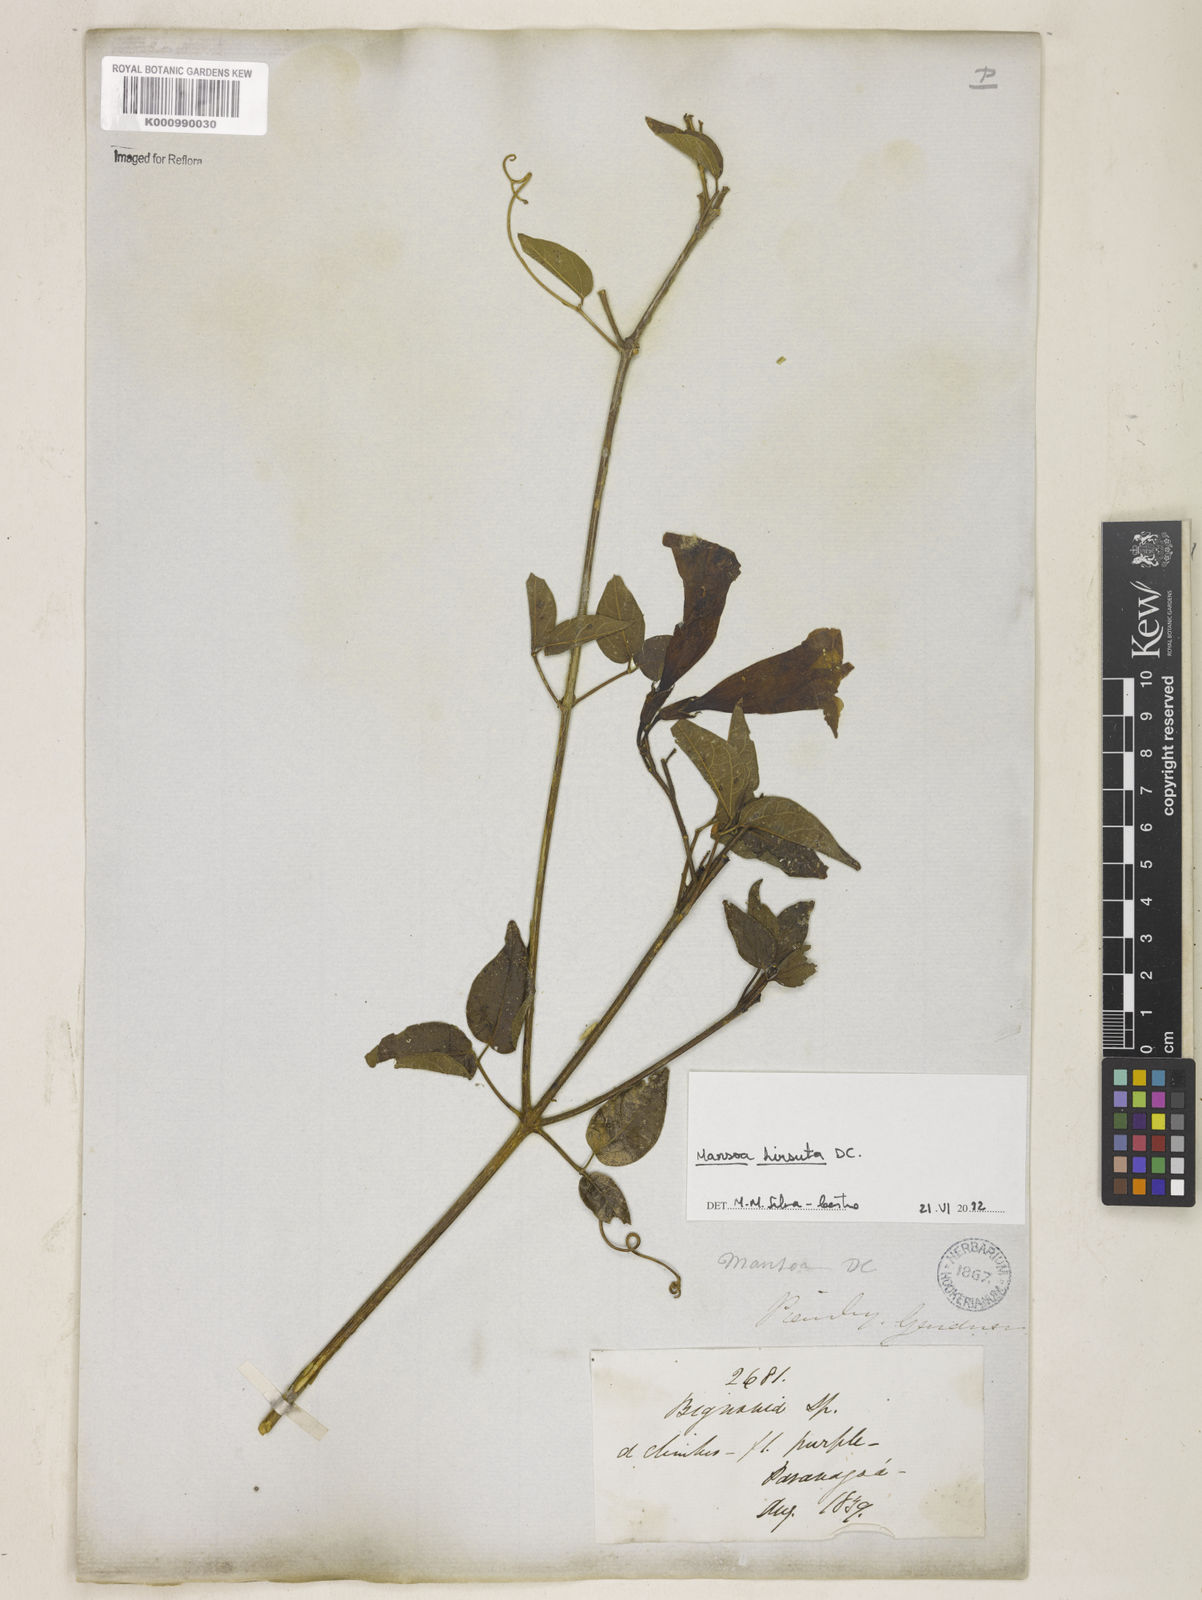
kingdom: Plantae
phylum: Tracheophyta
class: Magnoliopsida
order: Lamiales
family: Bignoniaceae
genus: Mansoa
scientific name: Mansoa hirsuta
